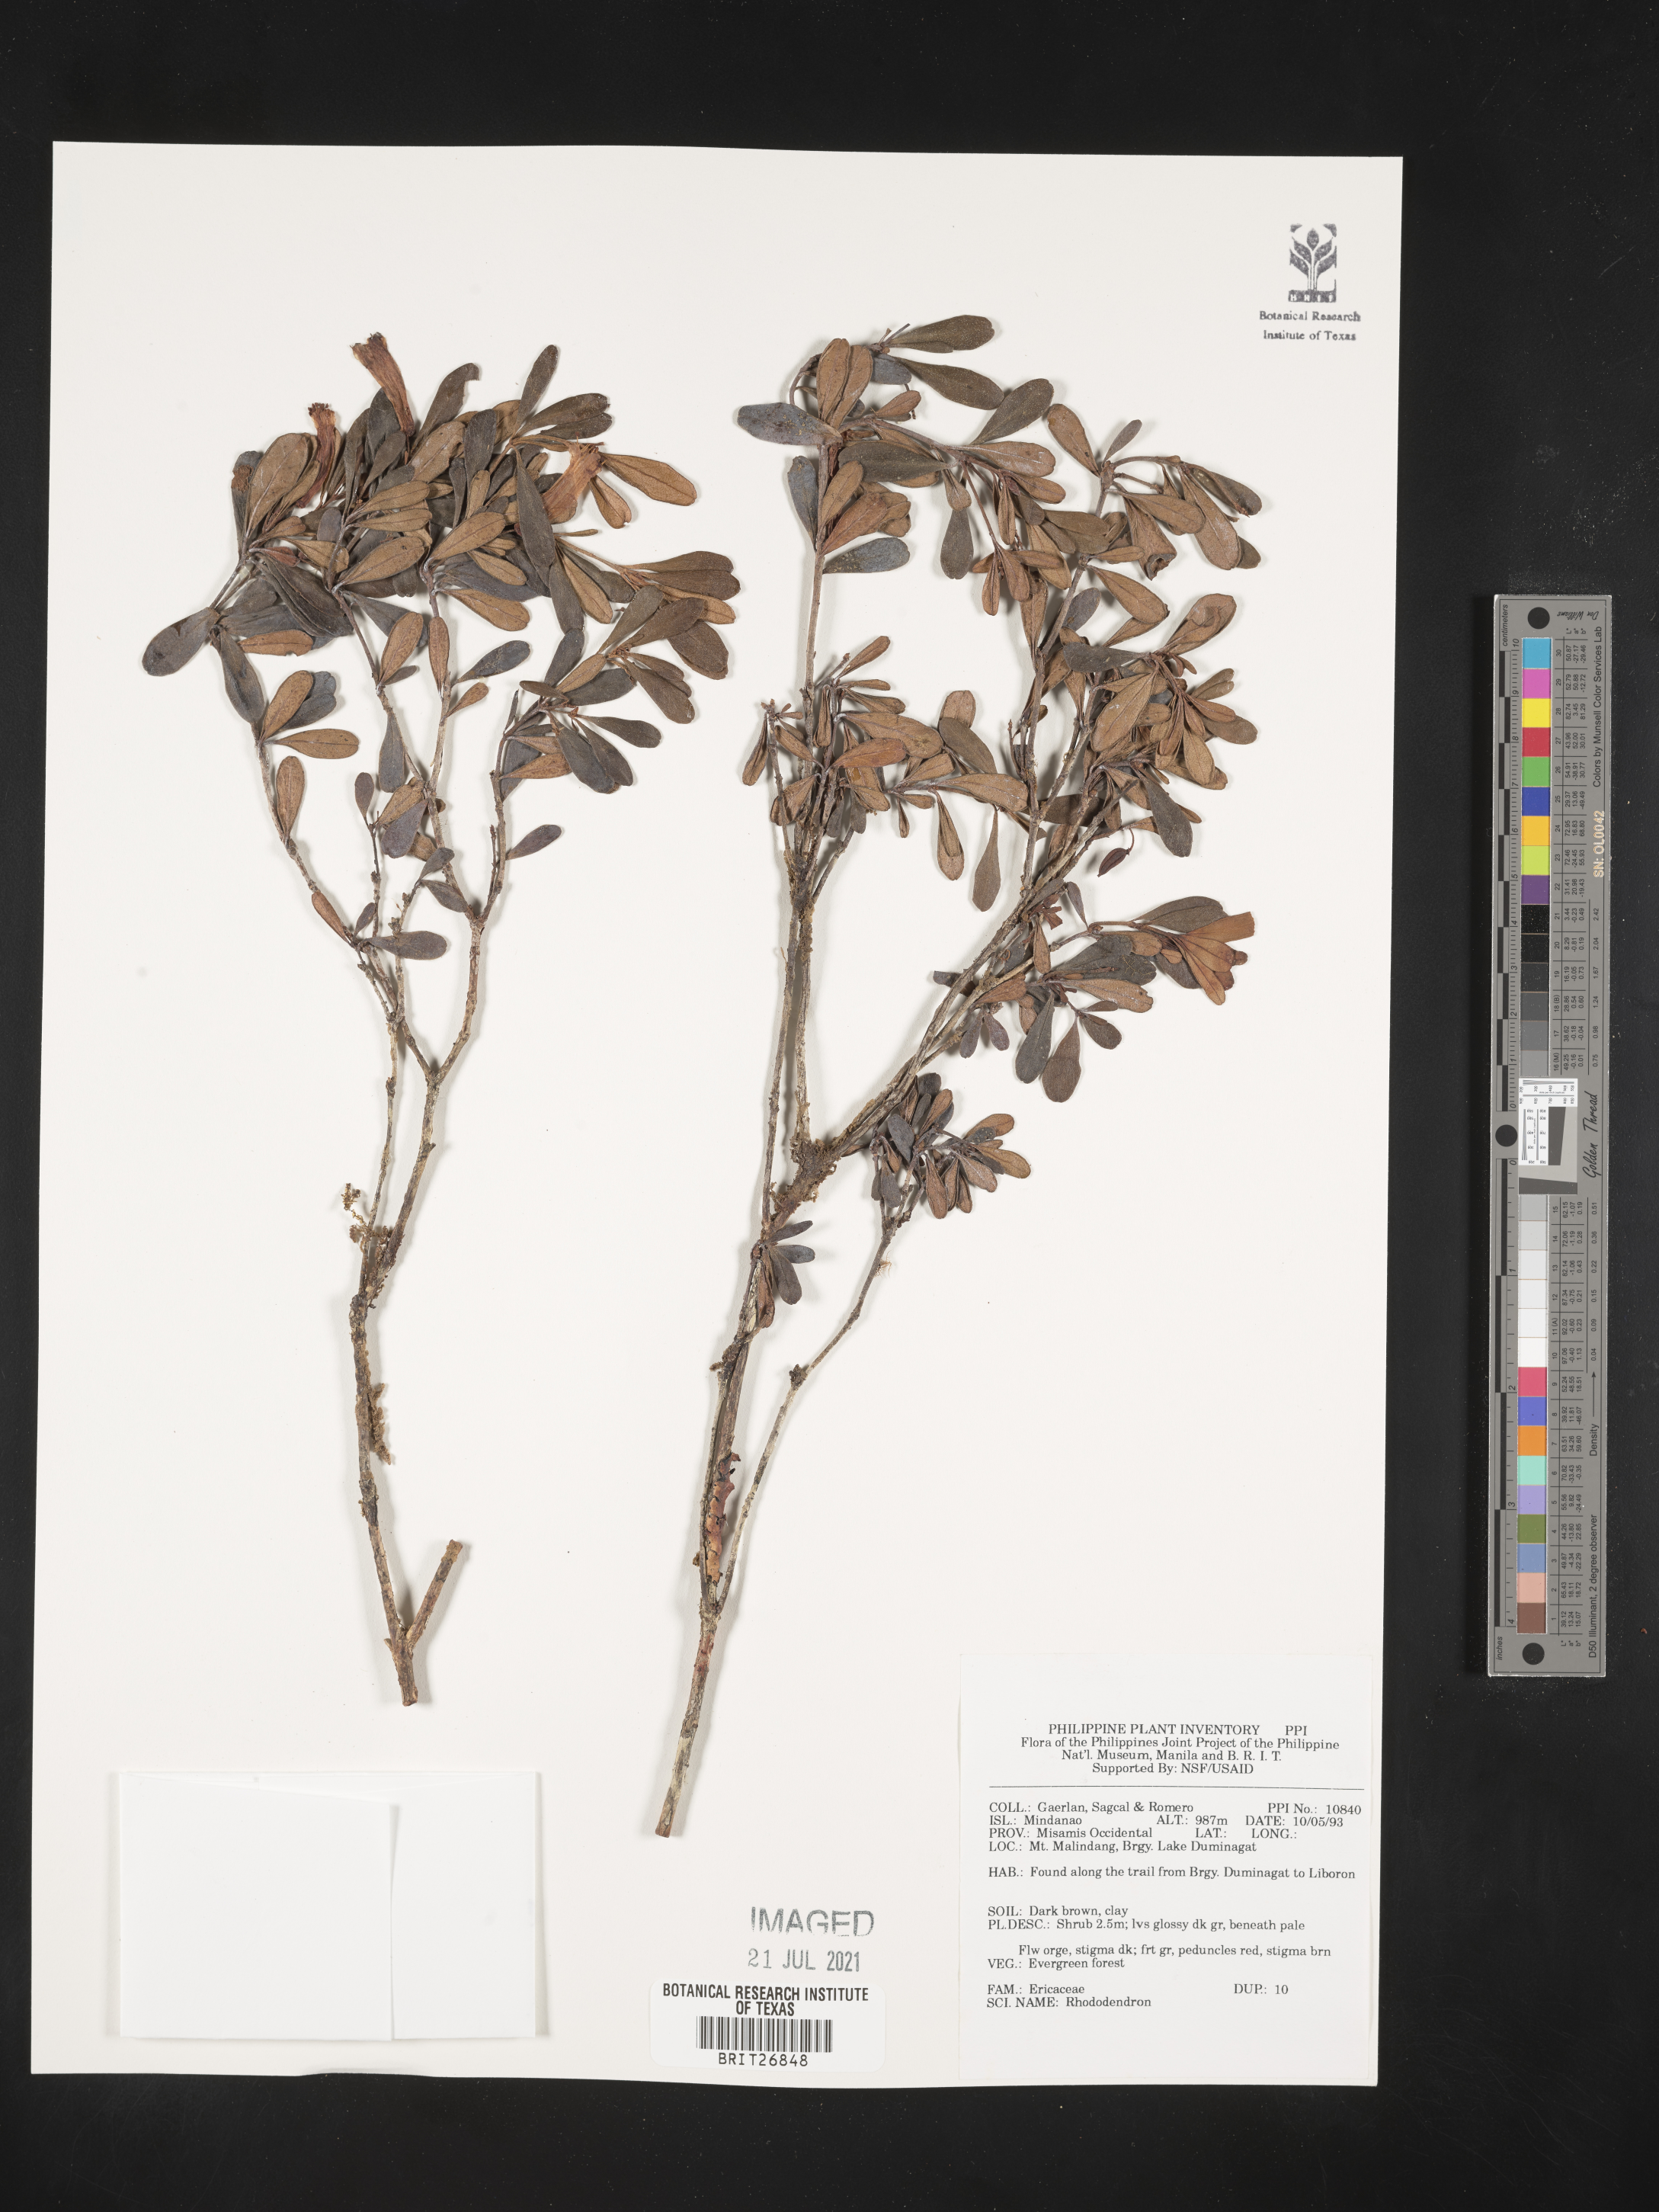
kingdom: Plantae
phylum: Tracheophyta
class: Magnoliopsida
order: Ericales
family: Ericaceae
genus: Rhododendron
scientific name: Rhododendron
